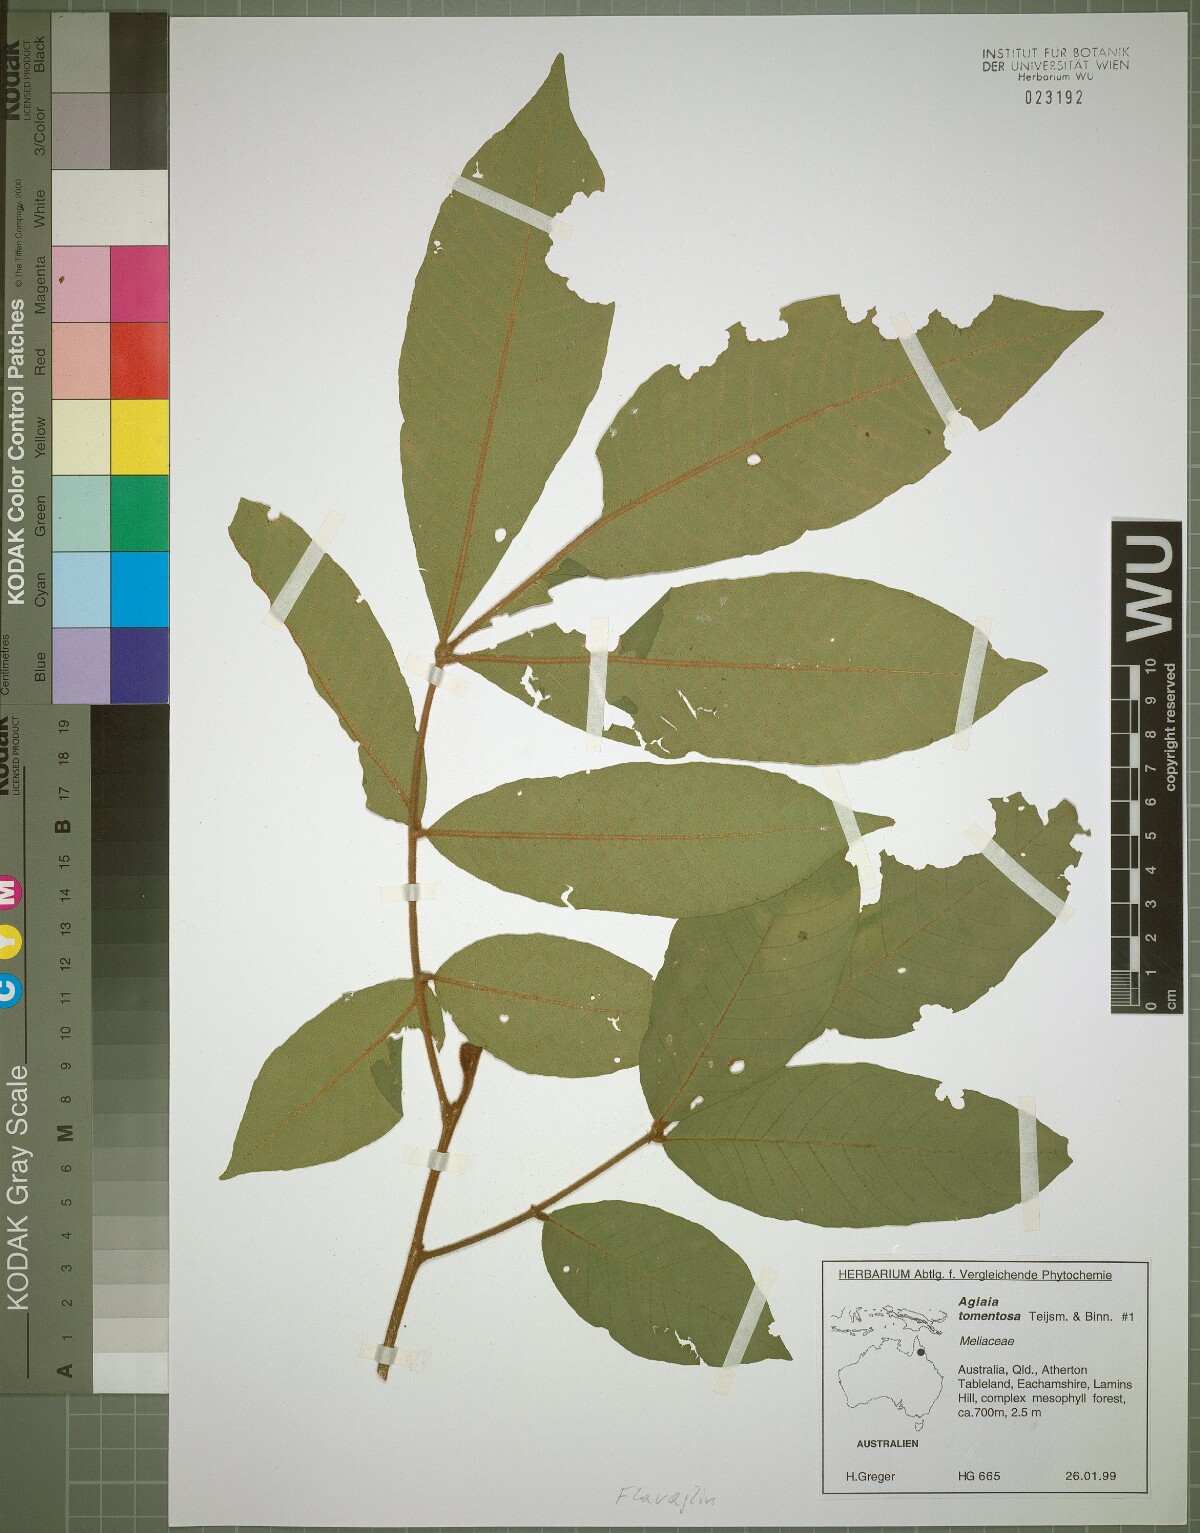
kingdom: Plantae
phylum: Tracheophyta
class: Magnoliopsida
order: Sapindales
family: Meliaceae
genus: Aglaia
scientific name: Aglaia tomentosa
